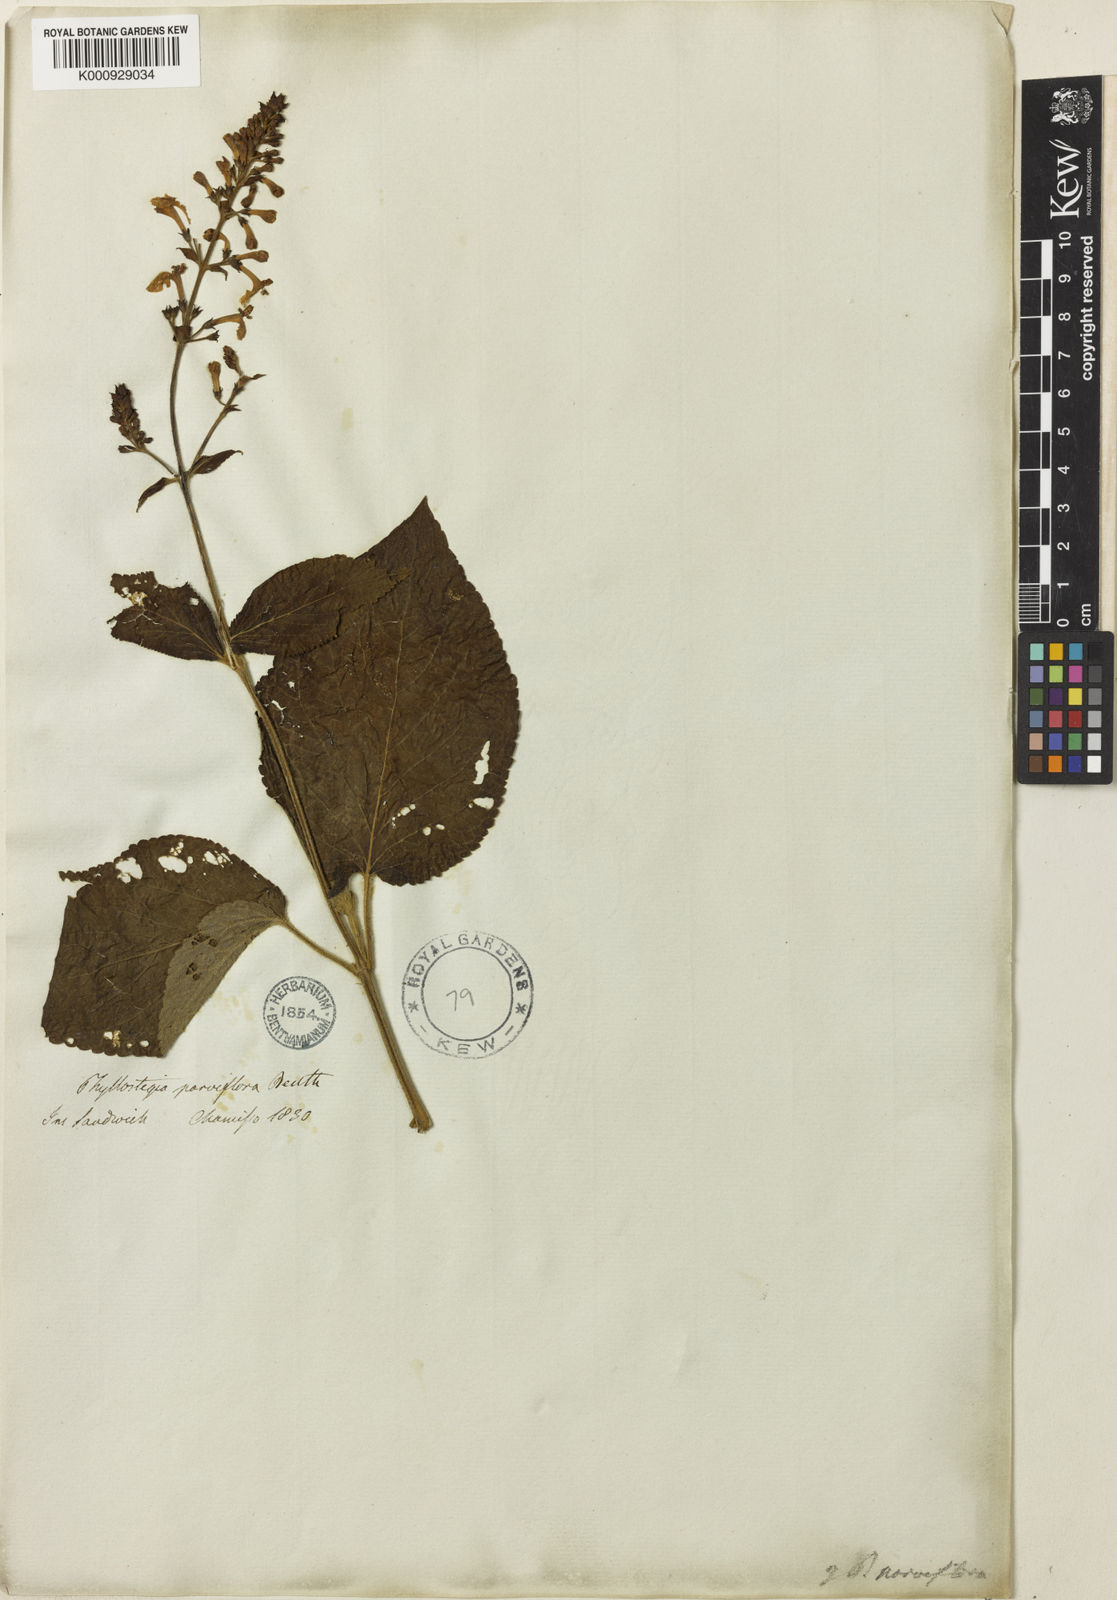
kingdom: Plantae
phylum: Tracheophyta
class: Magnoliopsida
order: Lamiales
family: Lamiaceae
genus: Phyllostegia
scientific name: Phyllostegia parviflora
